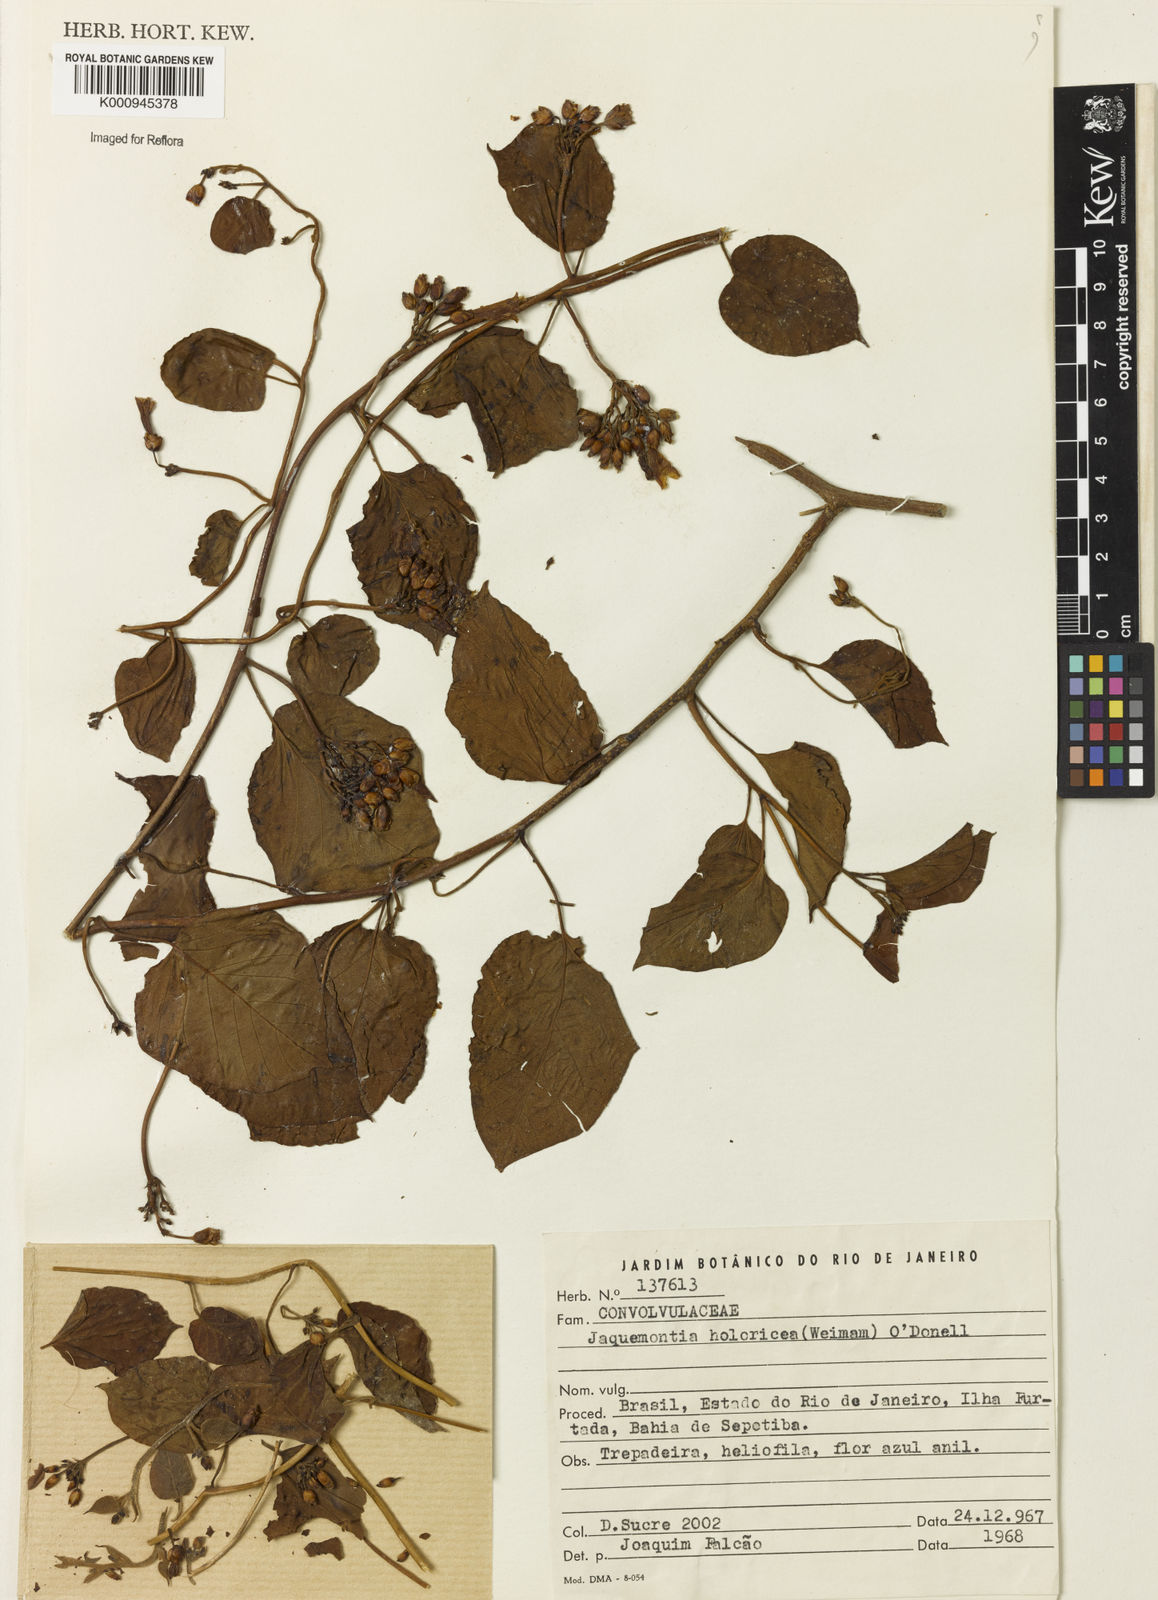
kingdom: Plantae
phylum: Tracheophyta
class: Magnoliopsida
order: Solanales
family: Convolvulaceae
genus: Jacquemontia
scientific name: Jacquemontia holosericea
